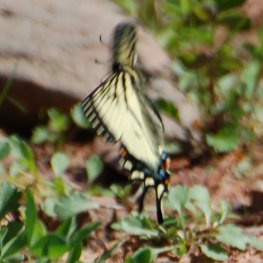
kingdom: Animalia
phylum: Arthropoda
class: Insecta
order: Lepidoptera
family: Papilionidae
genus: Pterourus
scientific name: Pterourus canadensis
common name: Canadian Tiger Swallowtail
